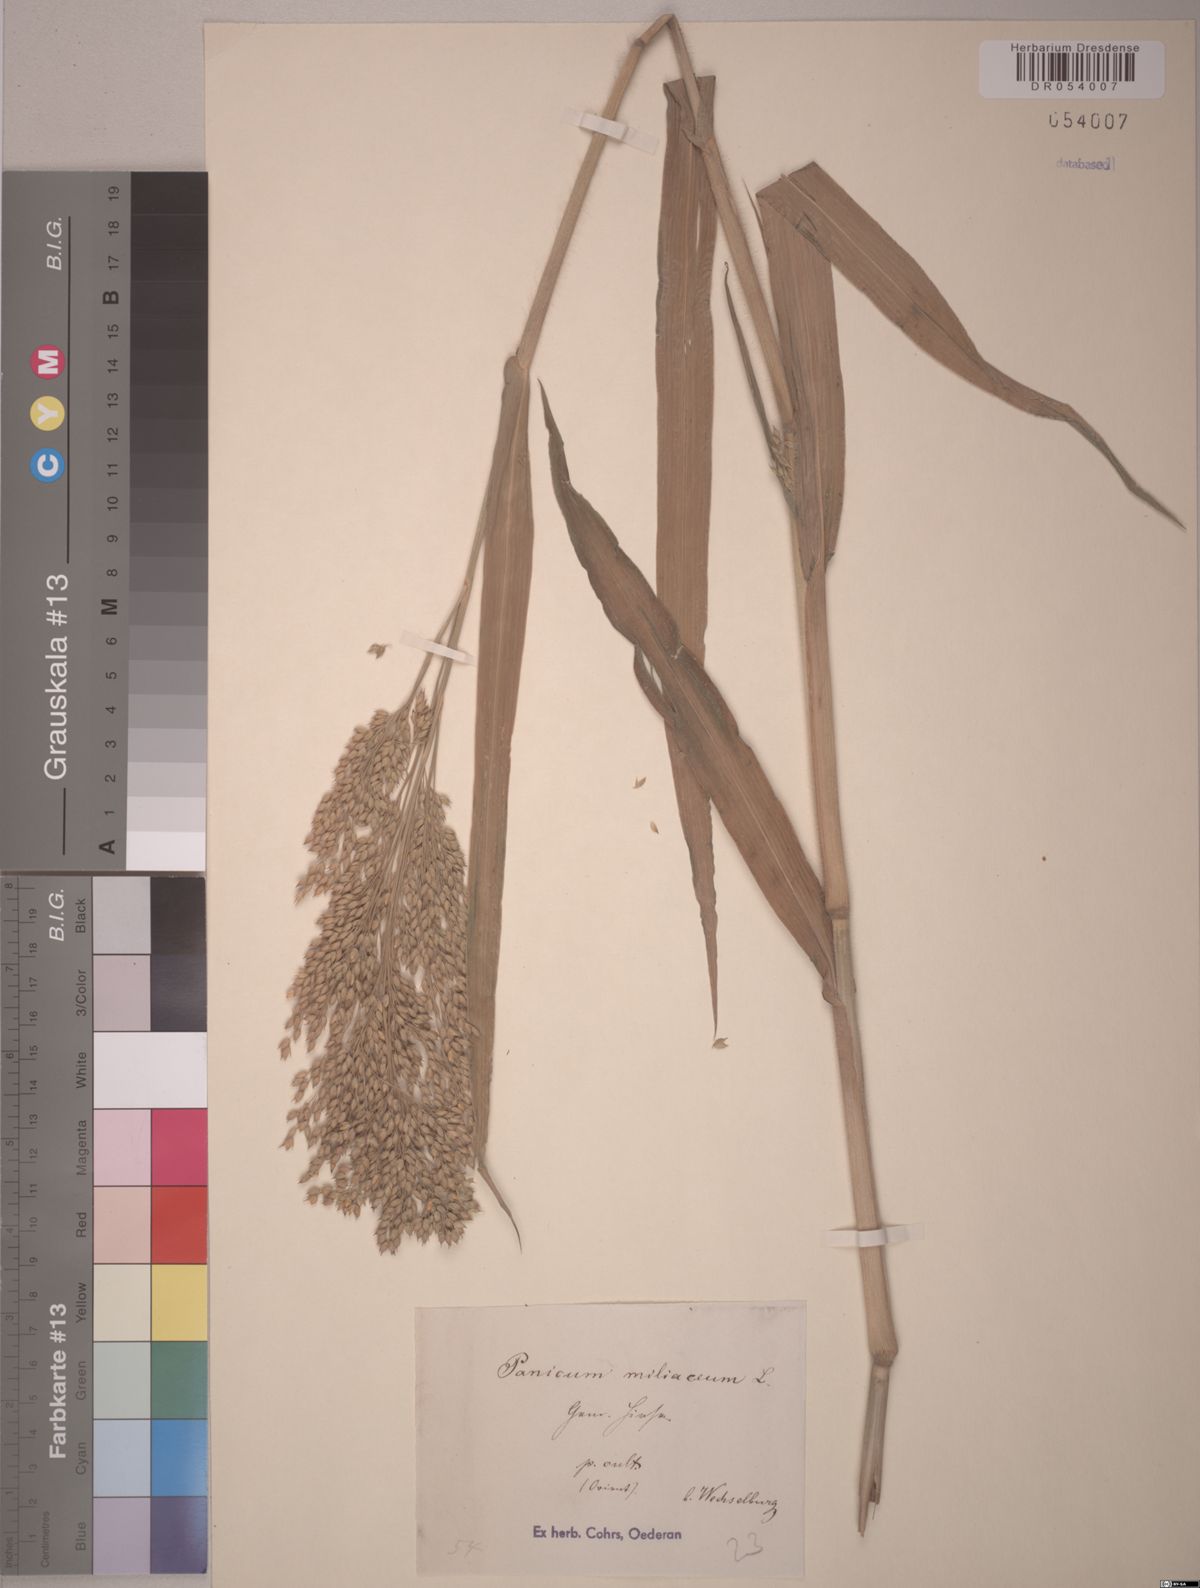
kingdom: Plantae
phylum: Tracheophyta
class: Liliopsida
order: Poales
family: Poaceae
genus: Panicum
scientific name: Panicum miliaceum
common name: Common millet
